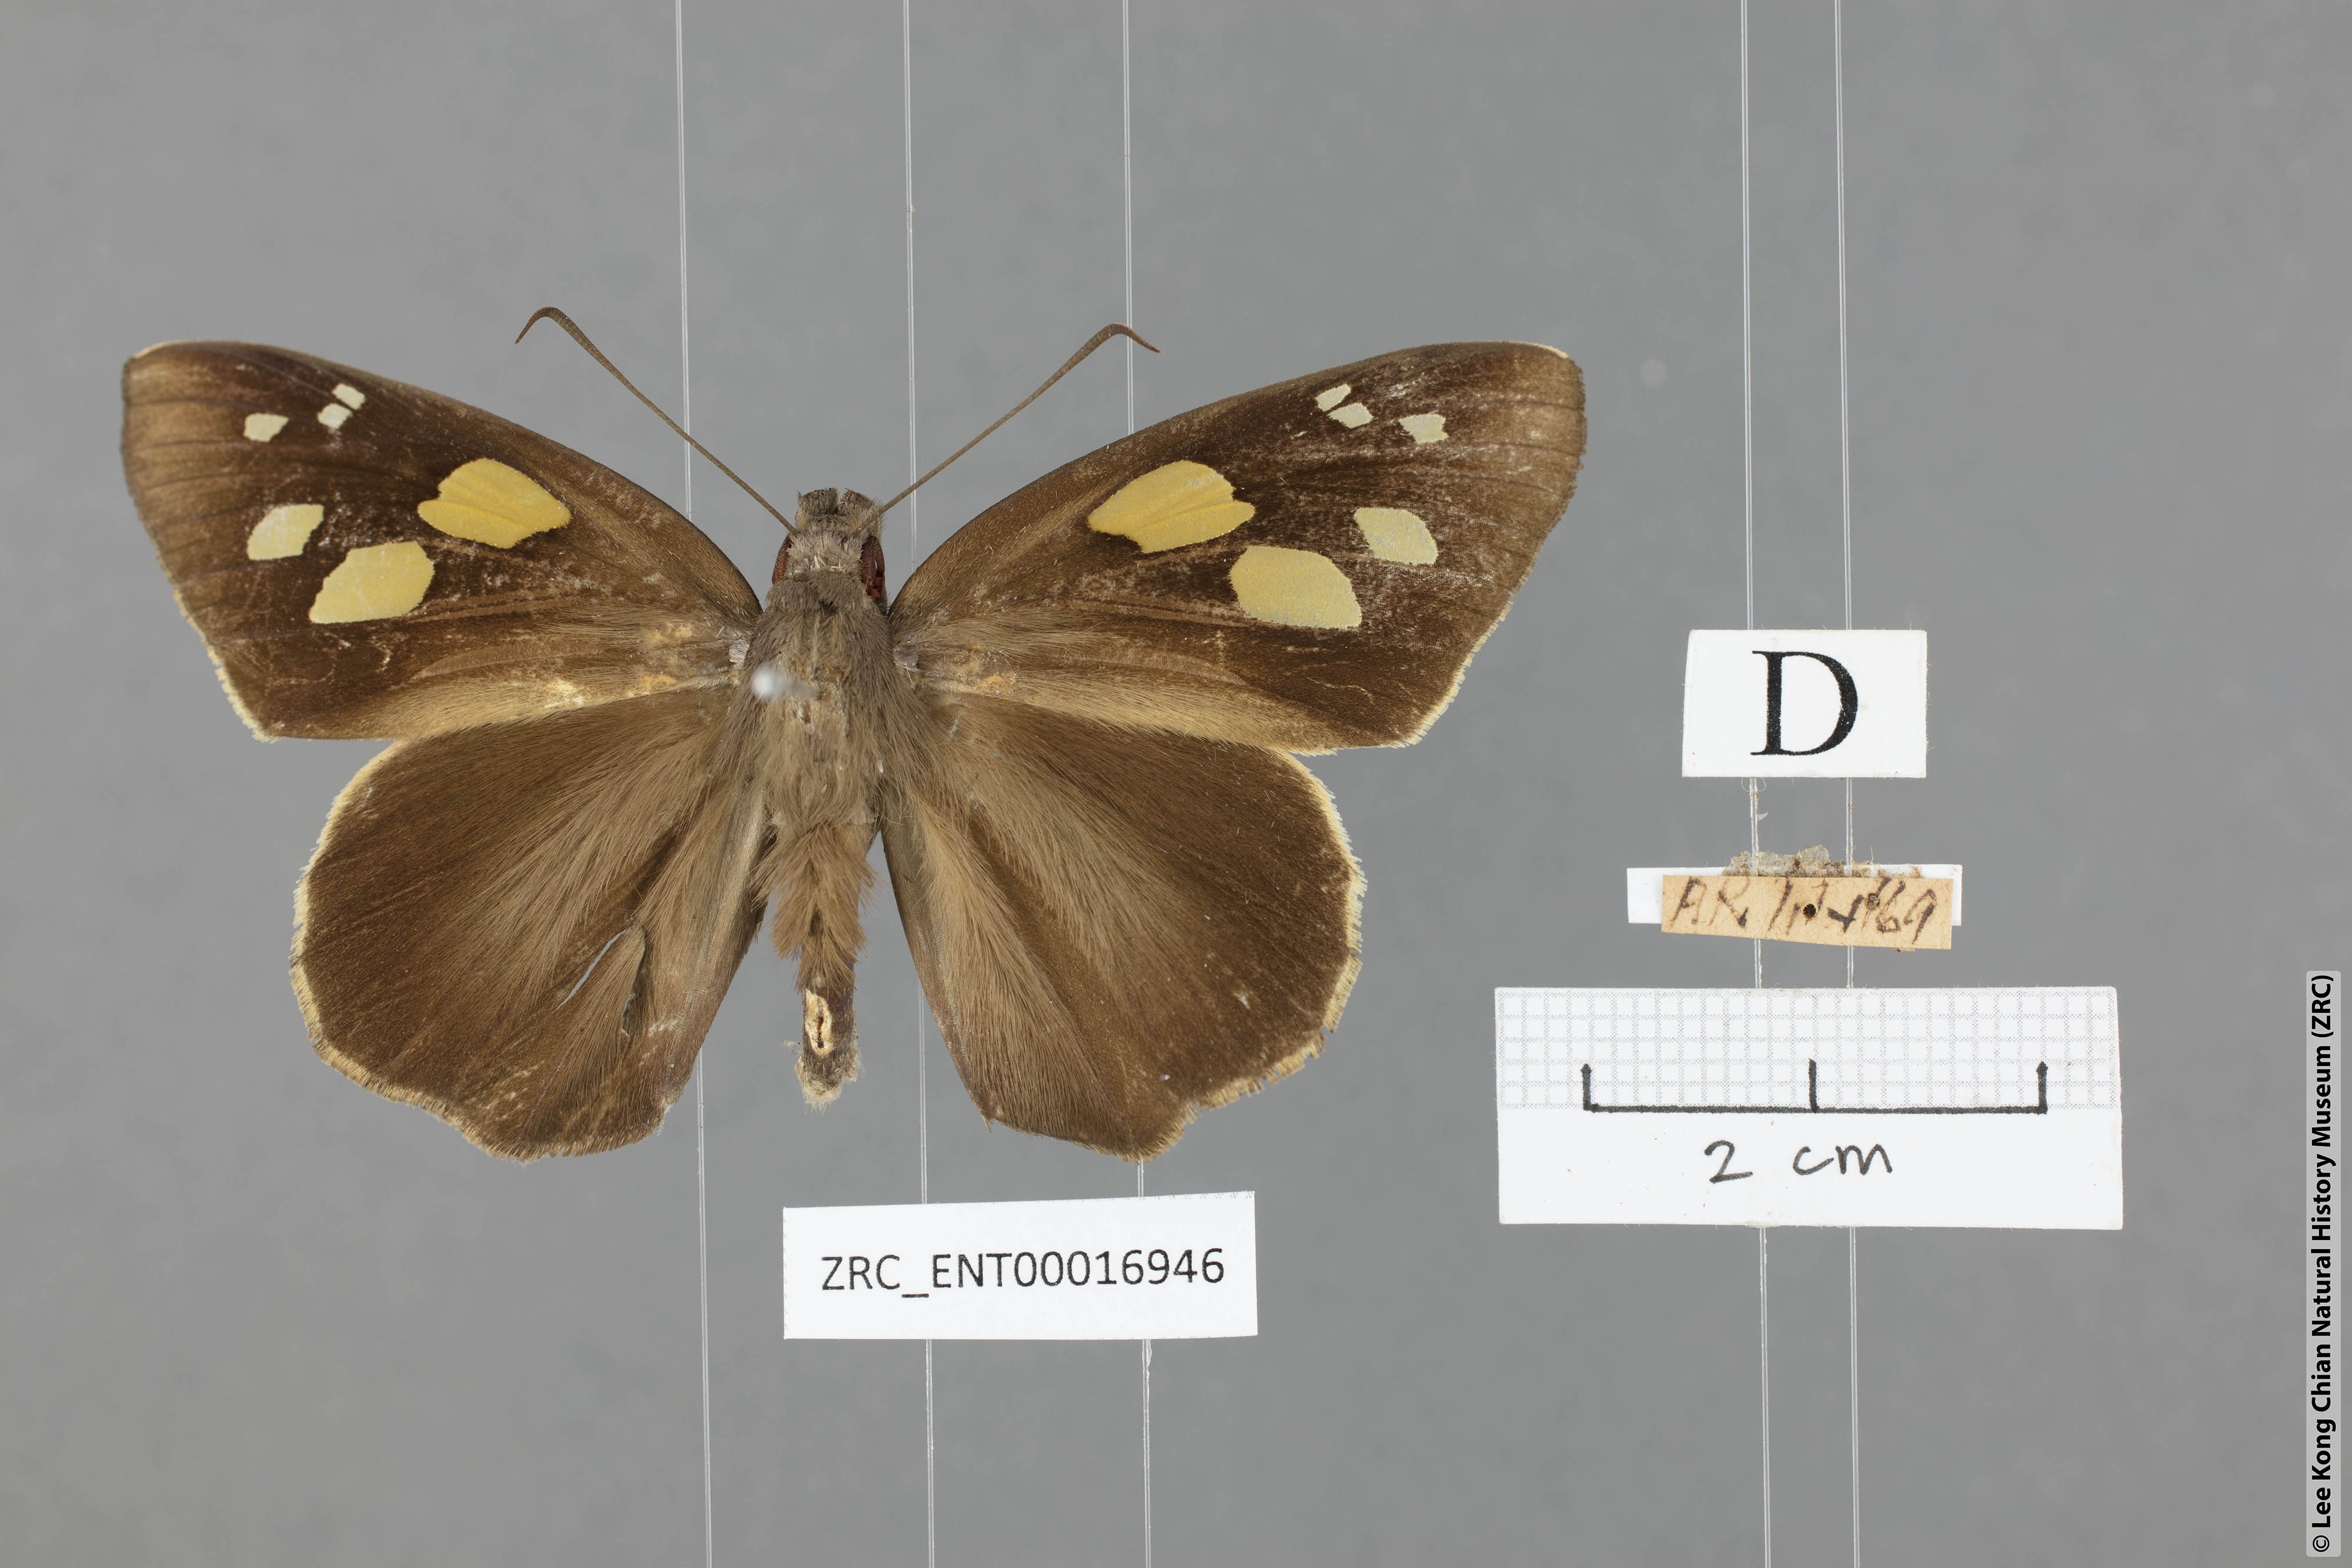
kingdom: Animalia
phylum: Arthropoda
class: Insecta
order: Lepidoptera
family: Hesperiidae
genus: Gangara
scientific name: Gangara thyrsis
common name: Giant redeye
